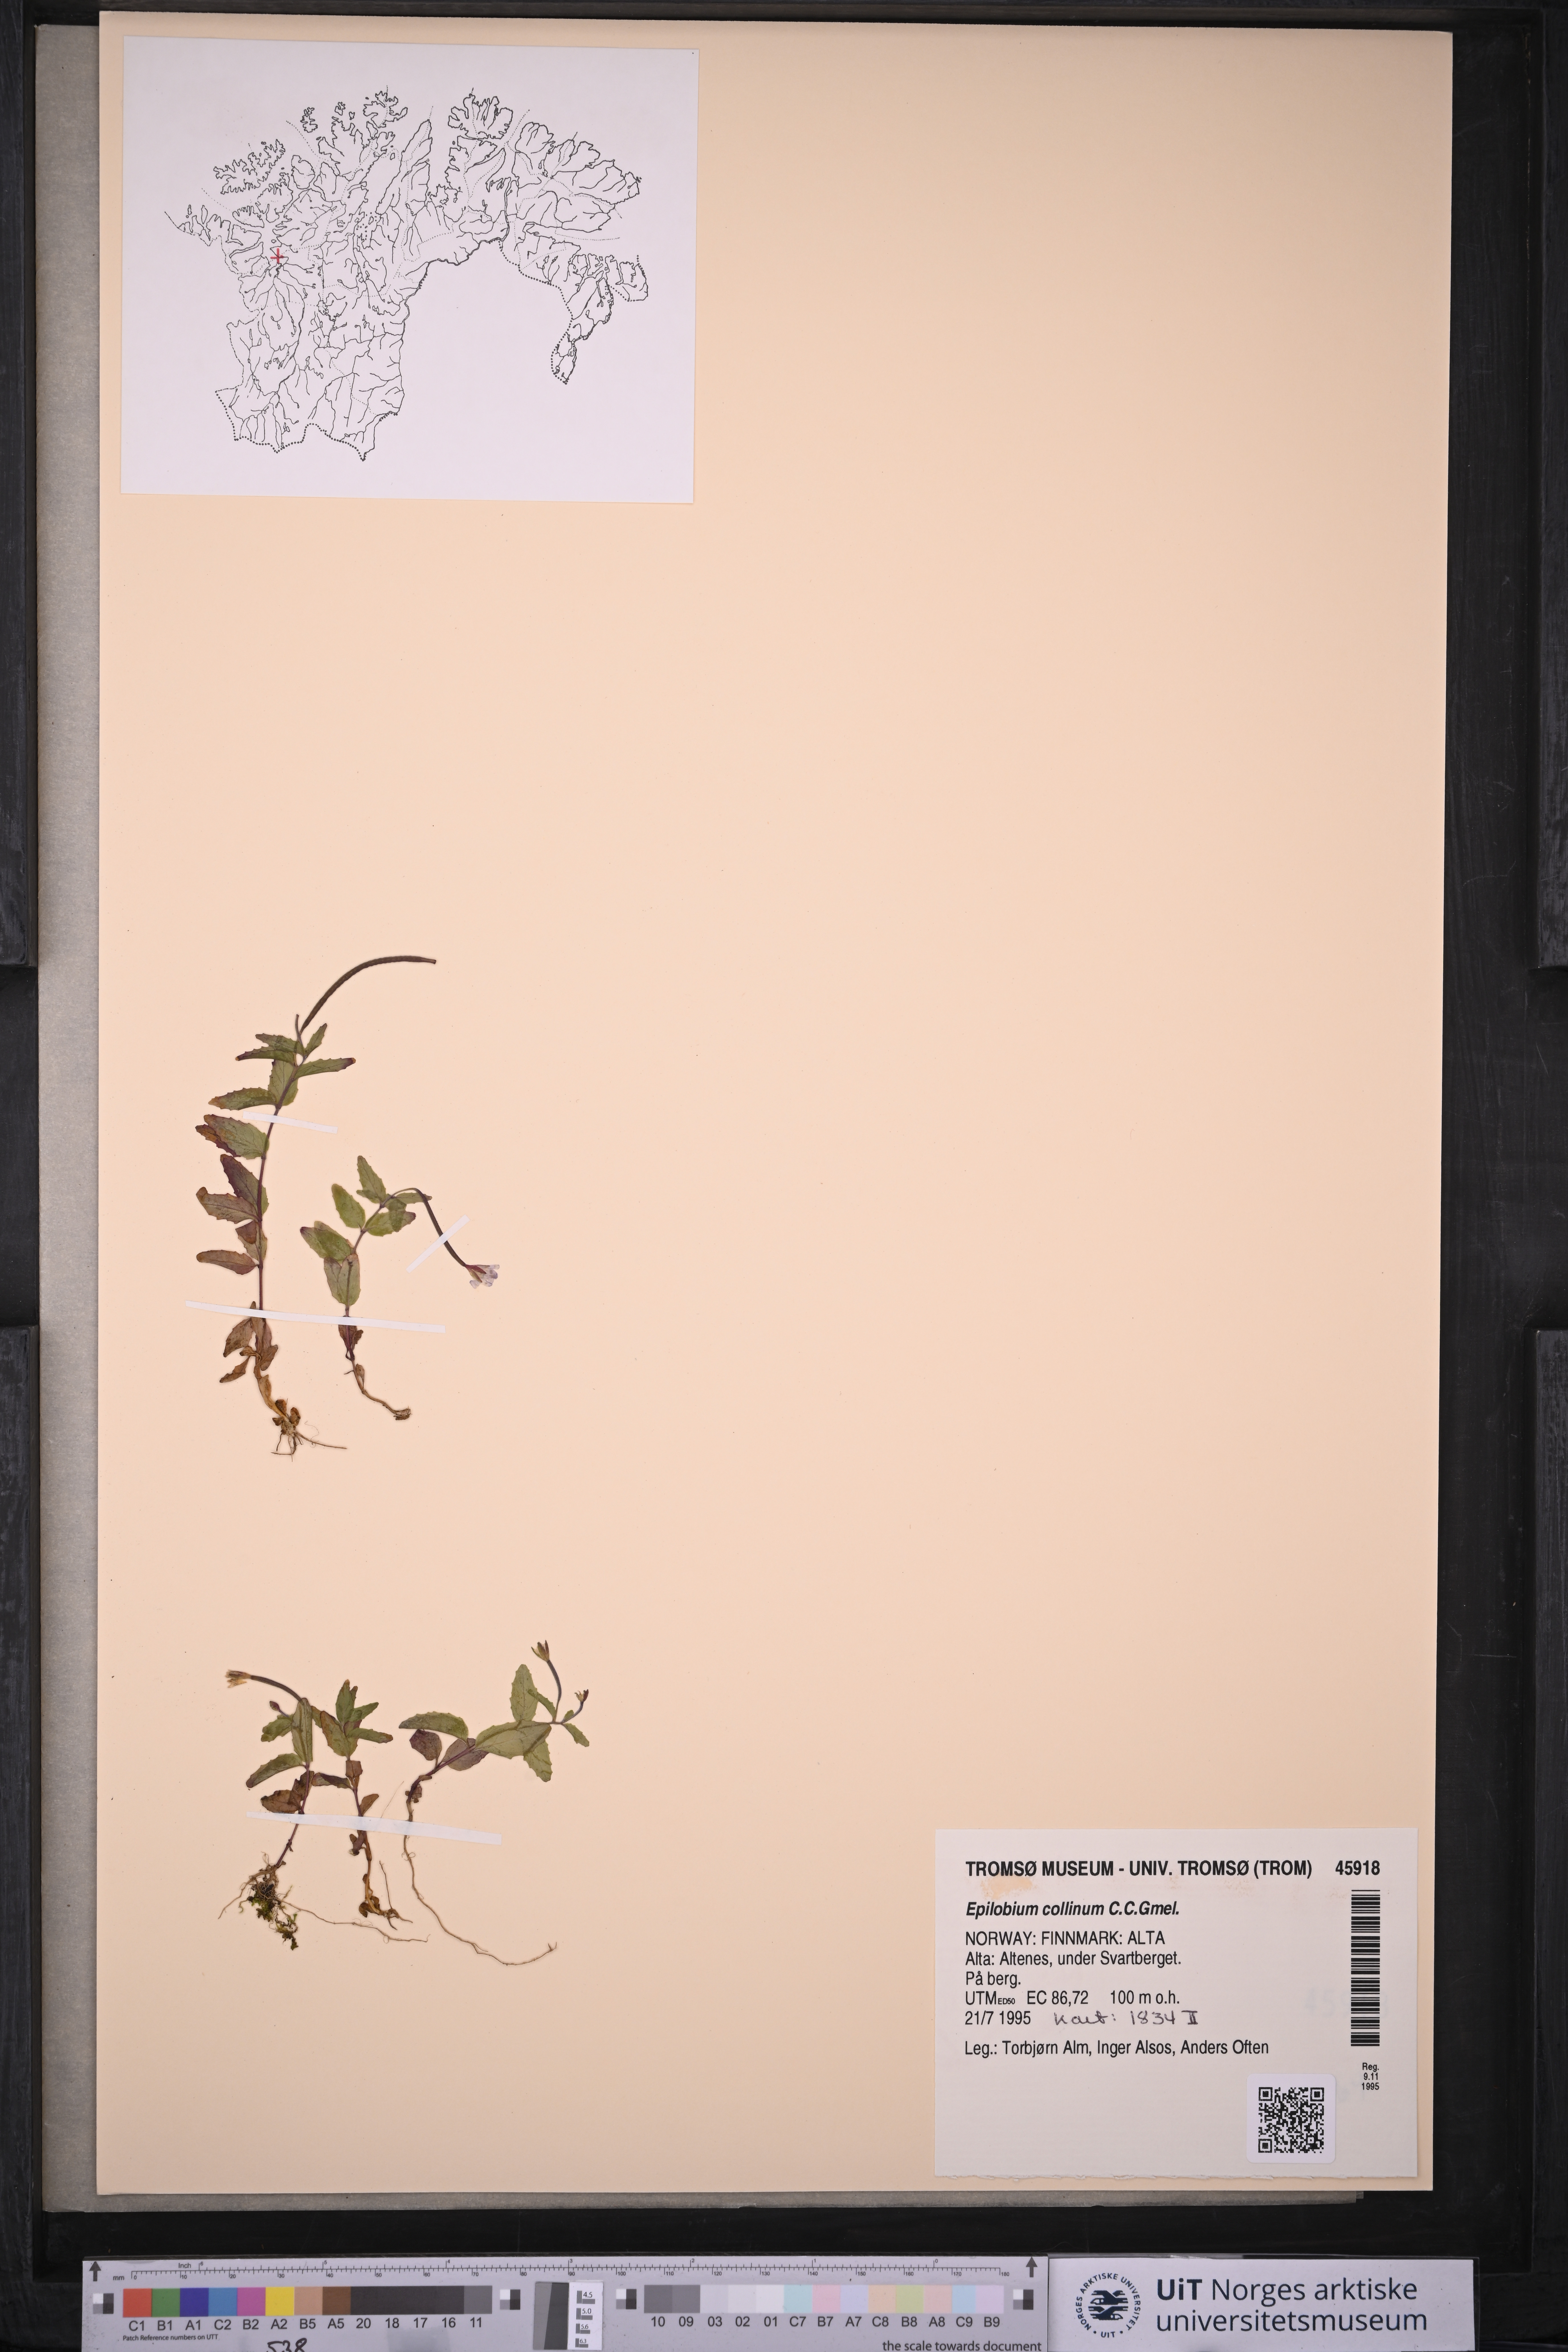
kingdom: Plantae
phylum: Tracheophyta
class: Magnoliopsida
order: Myrtales
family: Onagraceae
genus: Epilobium
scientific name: Epilobium collinum
